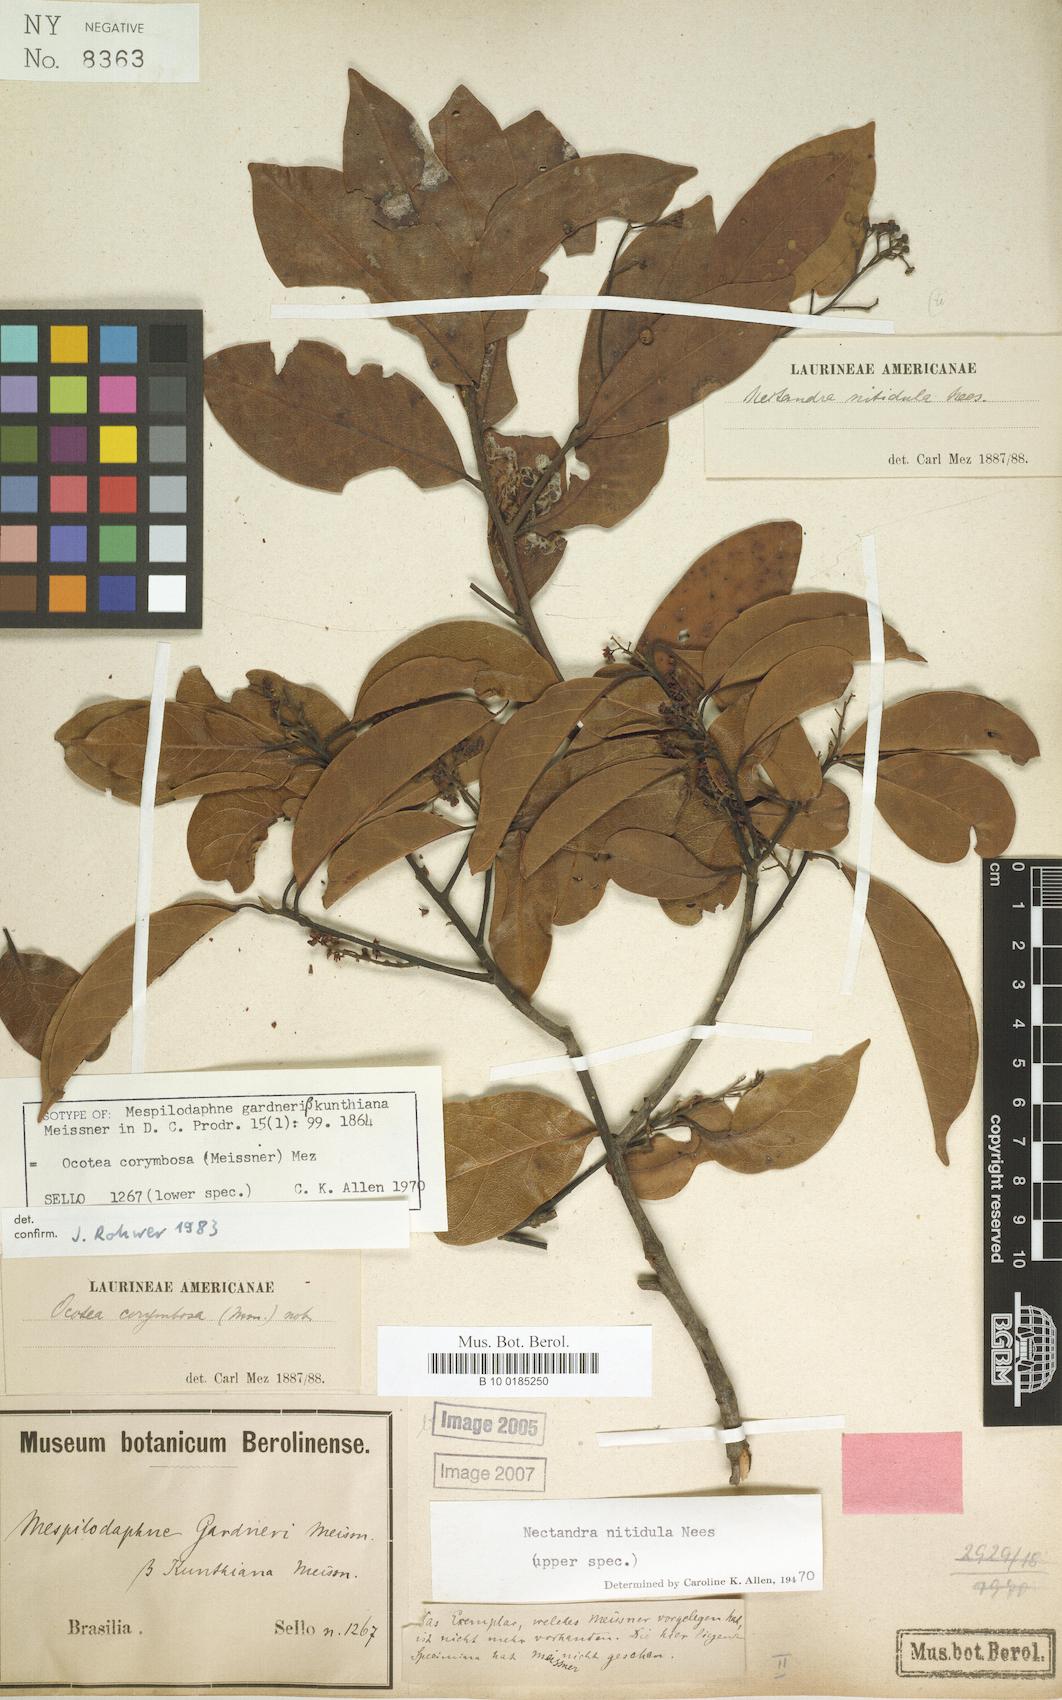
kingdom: Plantae
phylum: Tracheophyta
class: Magnoliopsida
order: Laurales
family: Lauraceae
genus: Mespilodaphne
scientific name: Mespilodaphne corymbosa
